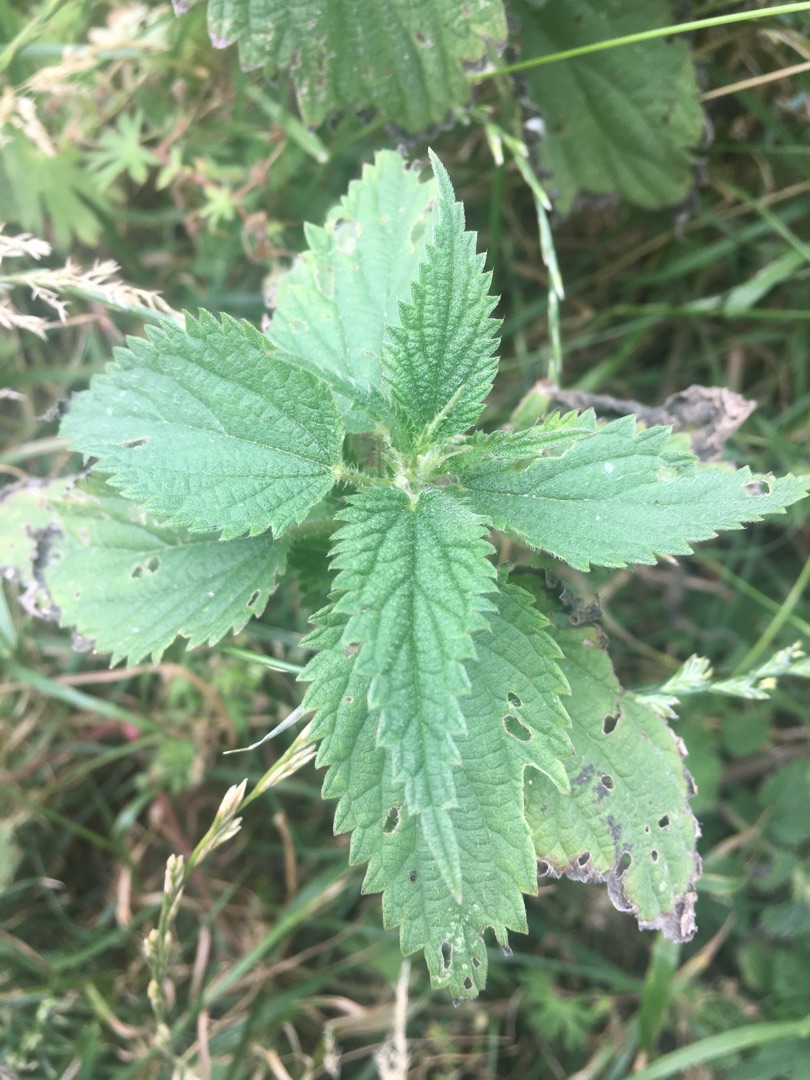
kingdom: Plantae
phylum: Tracheophyta
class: Magnoliopsida
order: Rosales
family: Urticaceae
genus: Urtica
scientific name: Urtica dioica
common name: Stor nælde
